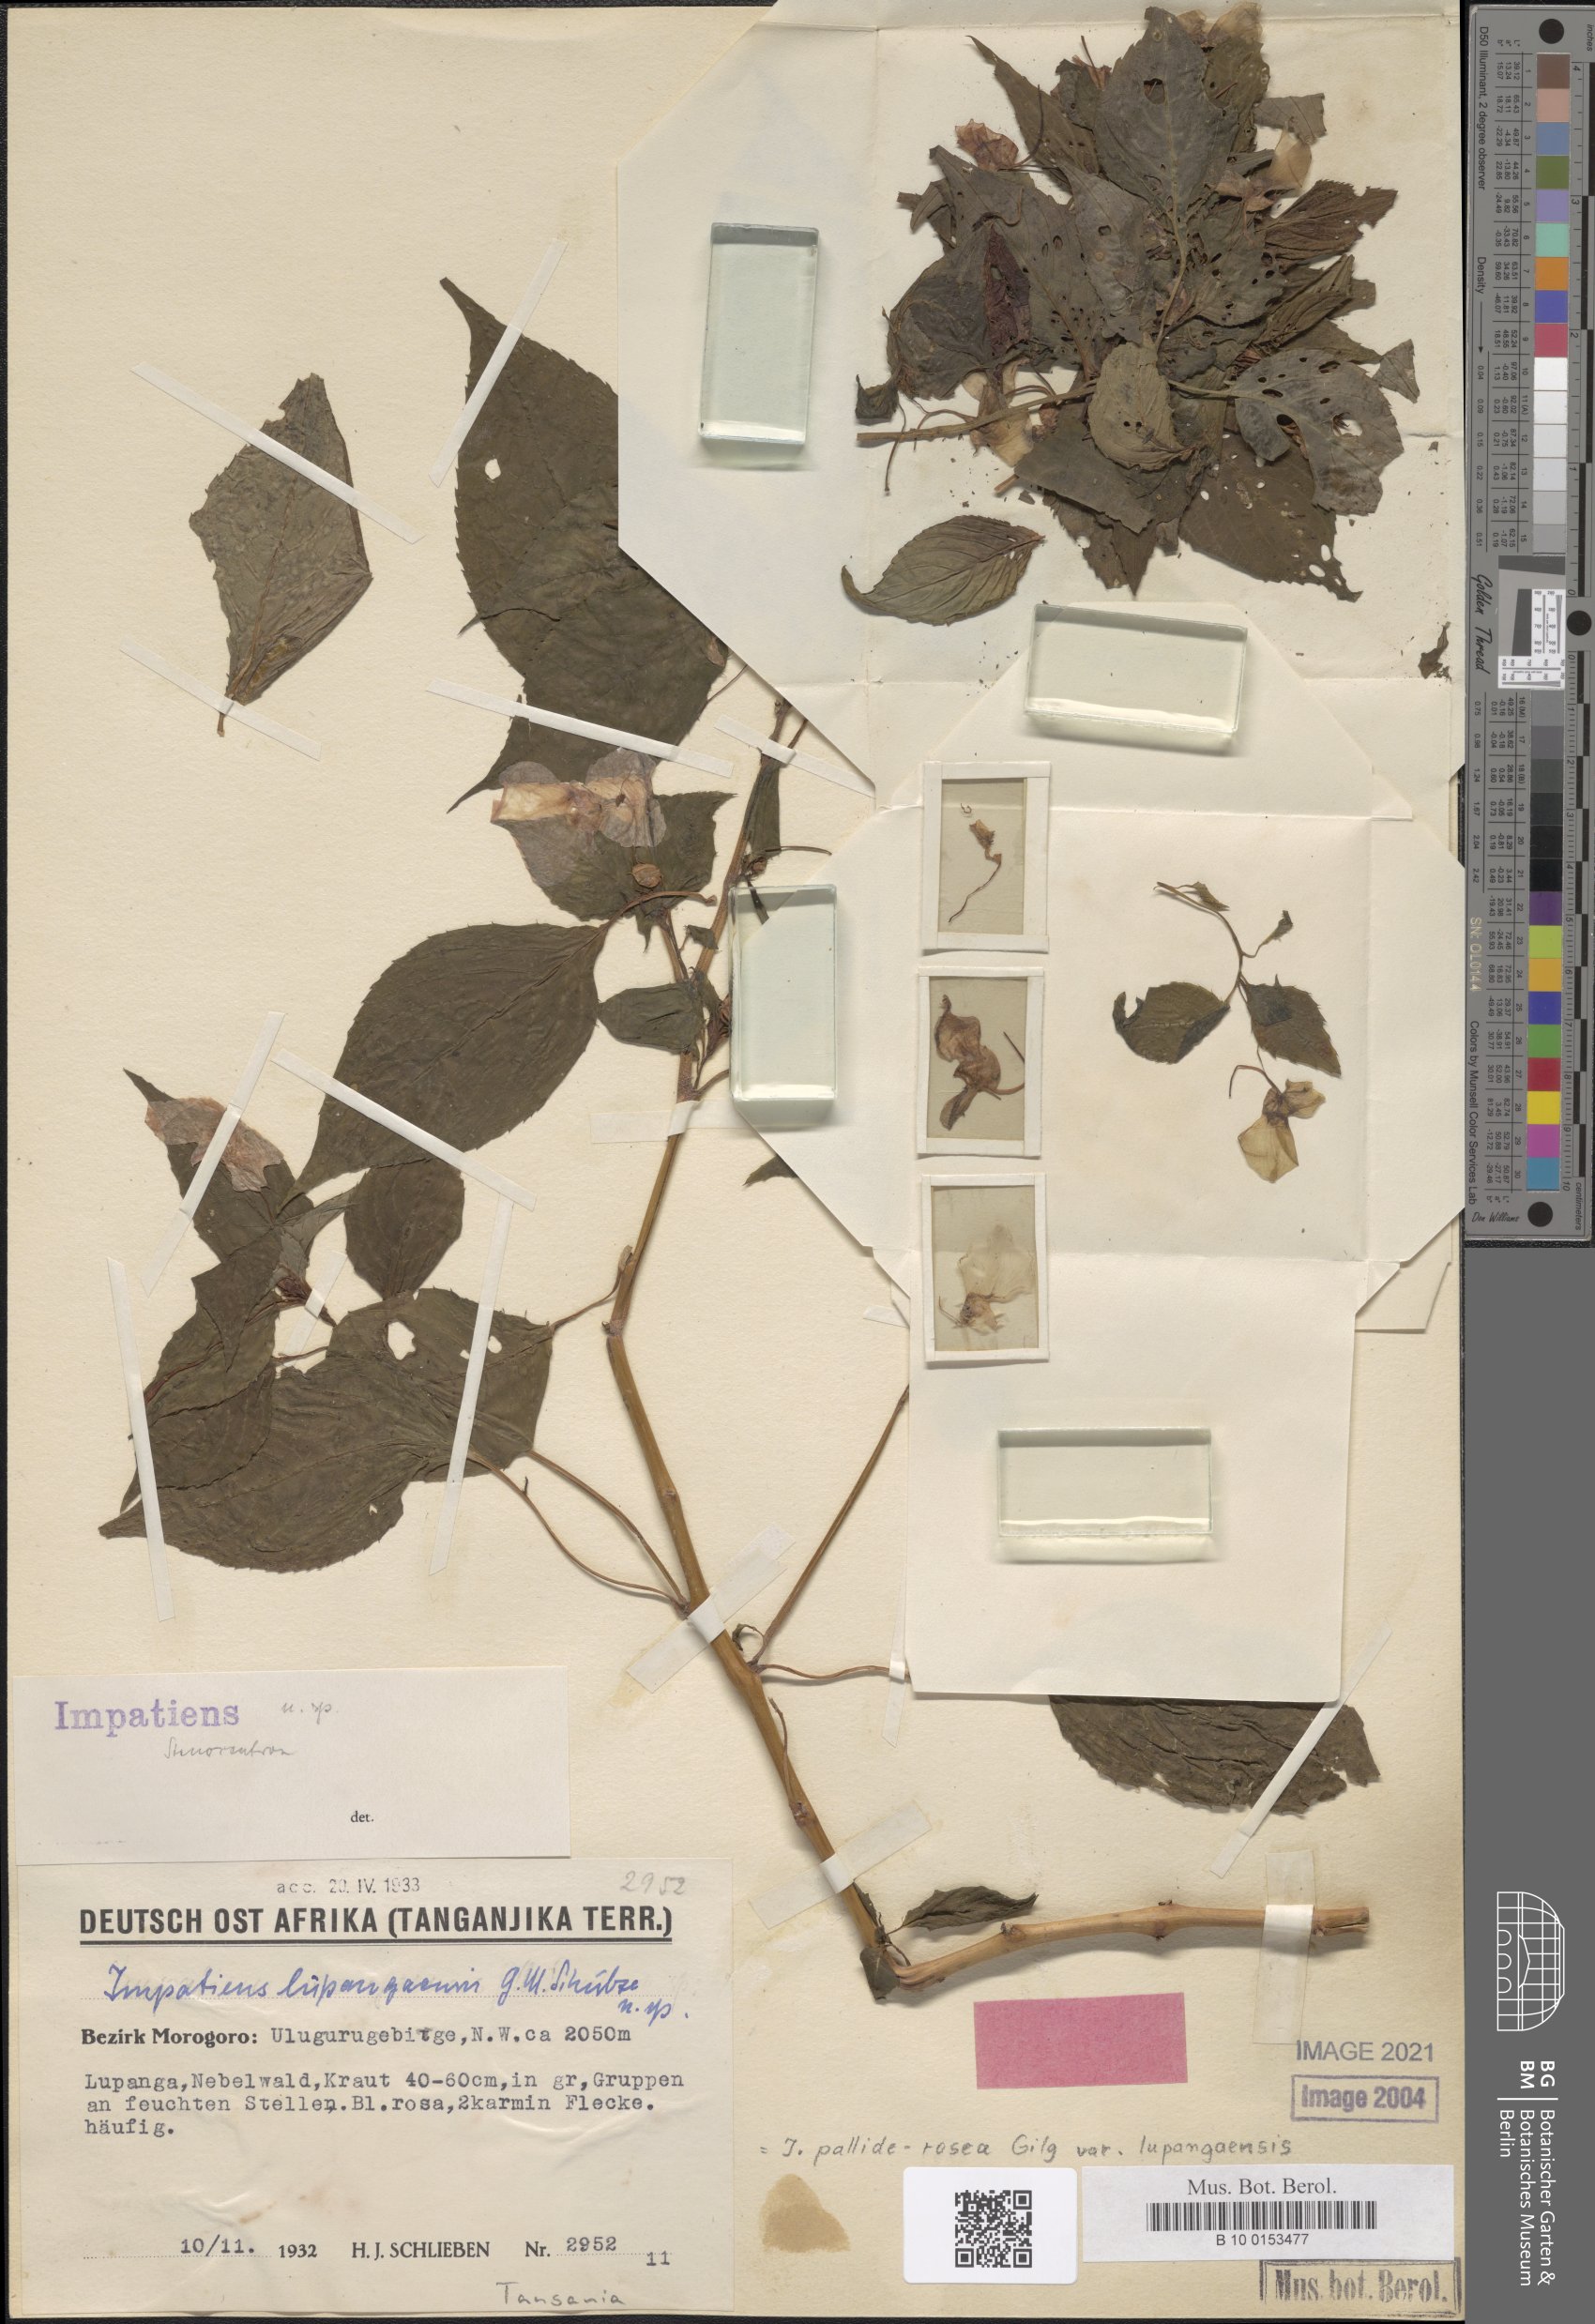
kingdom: Plantae
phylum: Tracheophyta
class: Magnoliopsida
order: Ericales
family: Balsaminaceae
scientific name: Balsaminaceae
